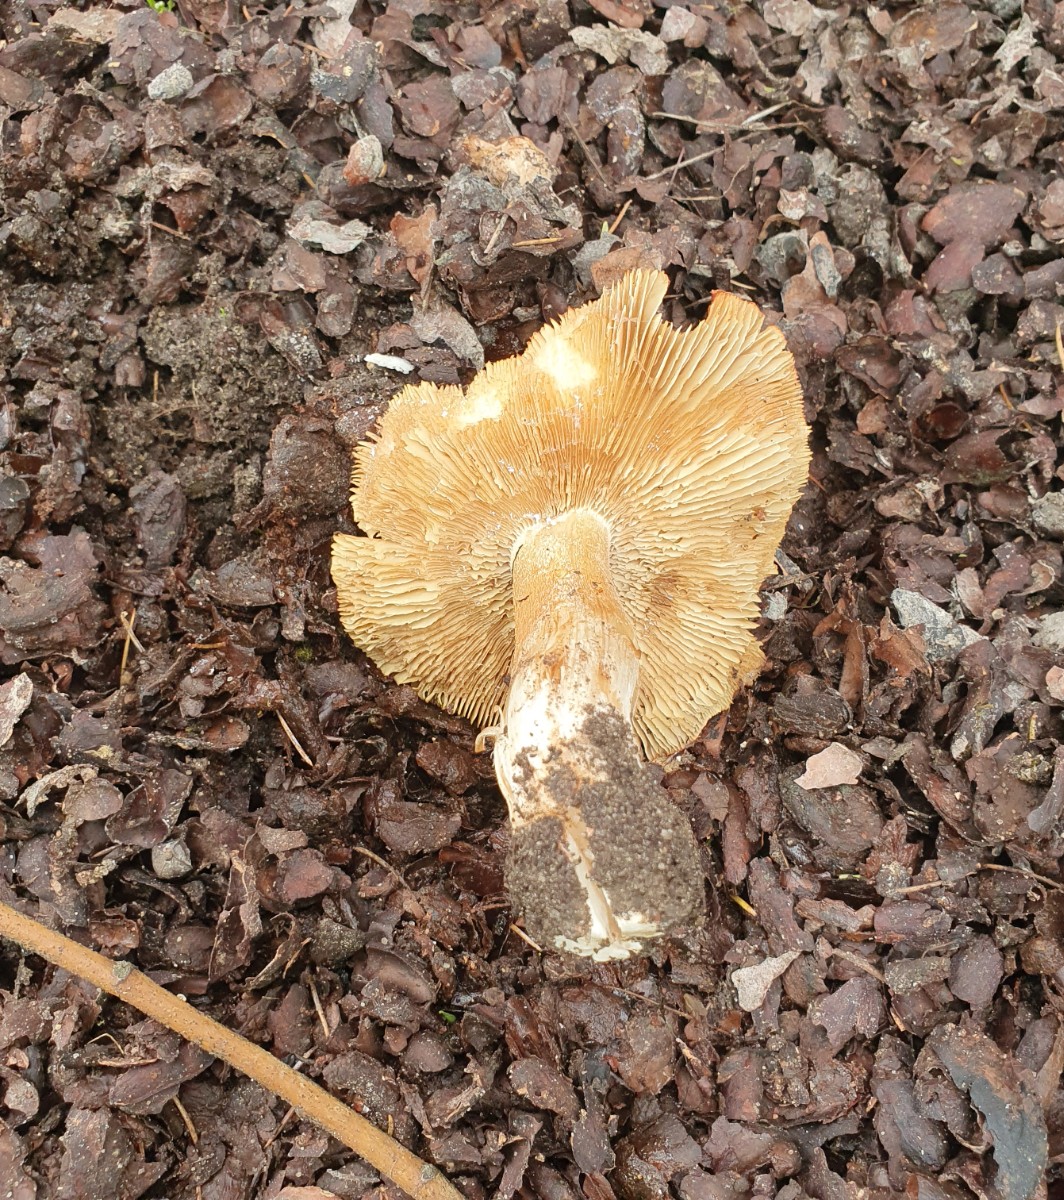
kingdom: Fungi
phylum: Basidiomycota
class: Agaricomycetes
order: Agaricales
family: Inocybaceae
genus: Inosperma
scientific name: Inosperma erubescens
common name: giftig trævlhat
